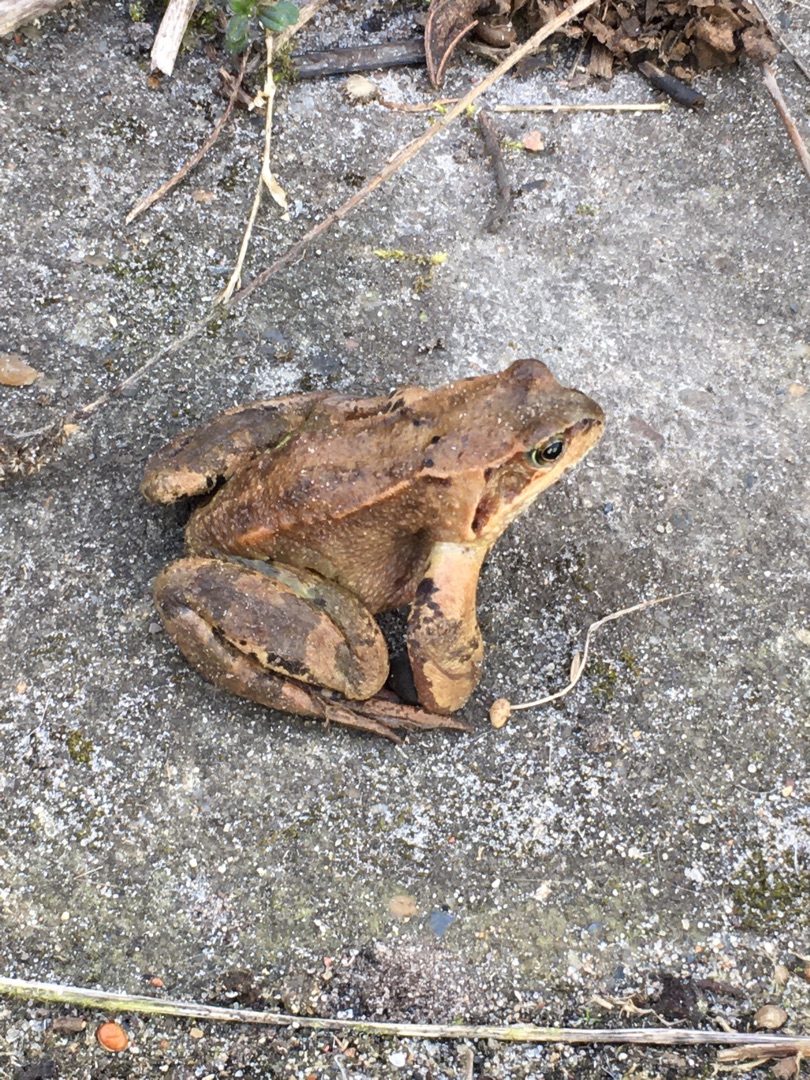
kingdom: Animalia
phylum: Chordata
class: Amphibia
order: Anura
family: Ranidae
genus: Rana
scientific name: Rana temporaria
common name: Butsnudet frø
